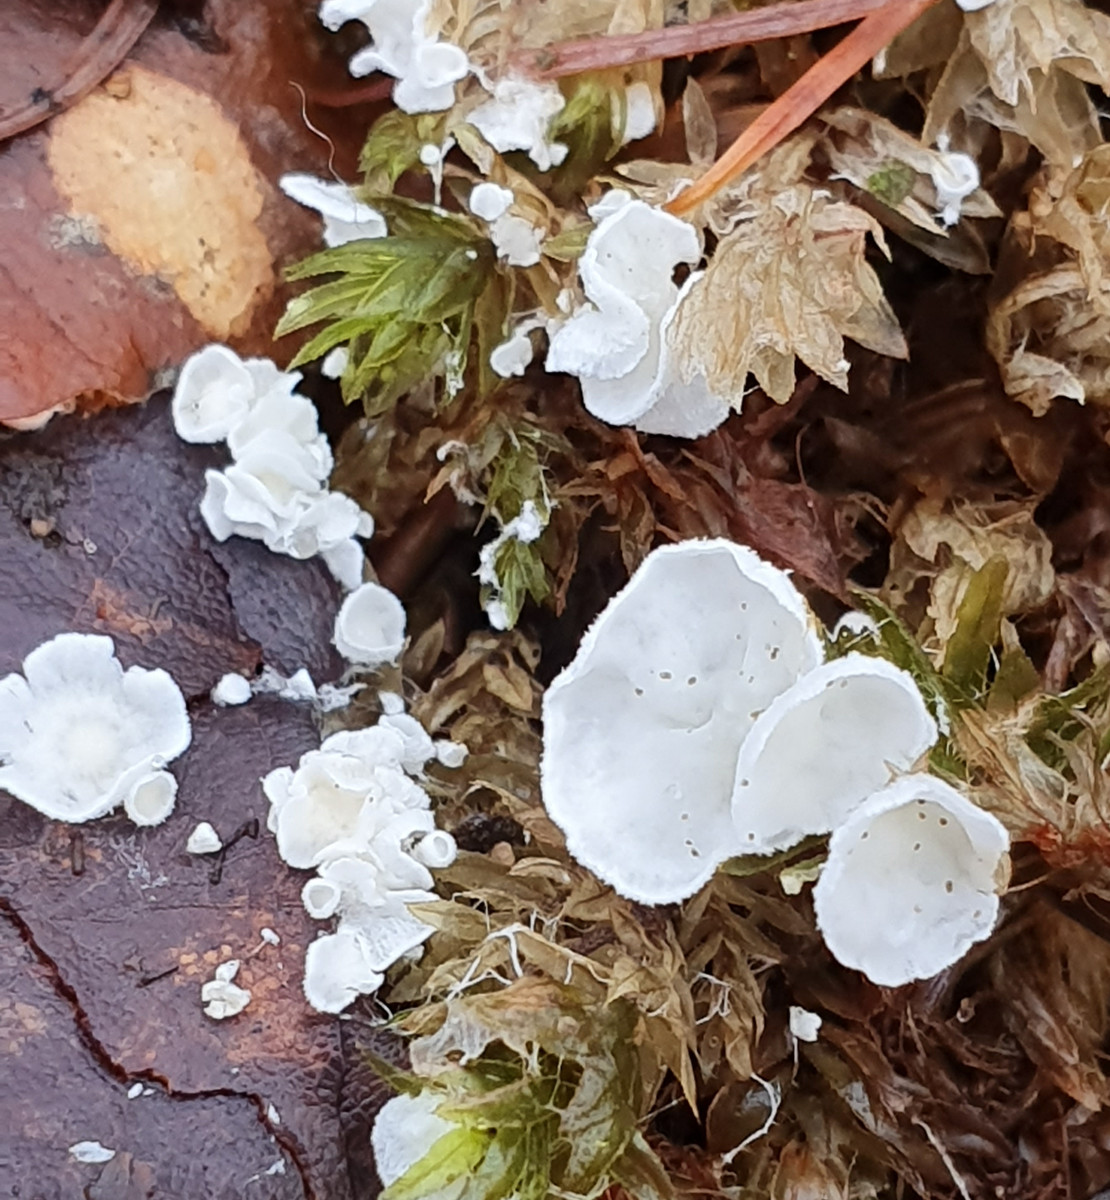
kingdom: Fungi
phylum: Basidiomycota
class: Agaricomycetes
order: Agaricales
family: Tricholomataceae
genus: Rimbachia
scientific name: Rimbachia arachnoidea
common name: Almindelig mosskål
